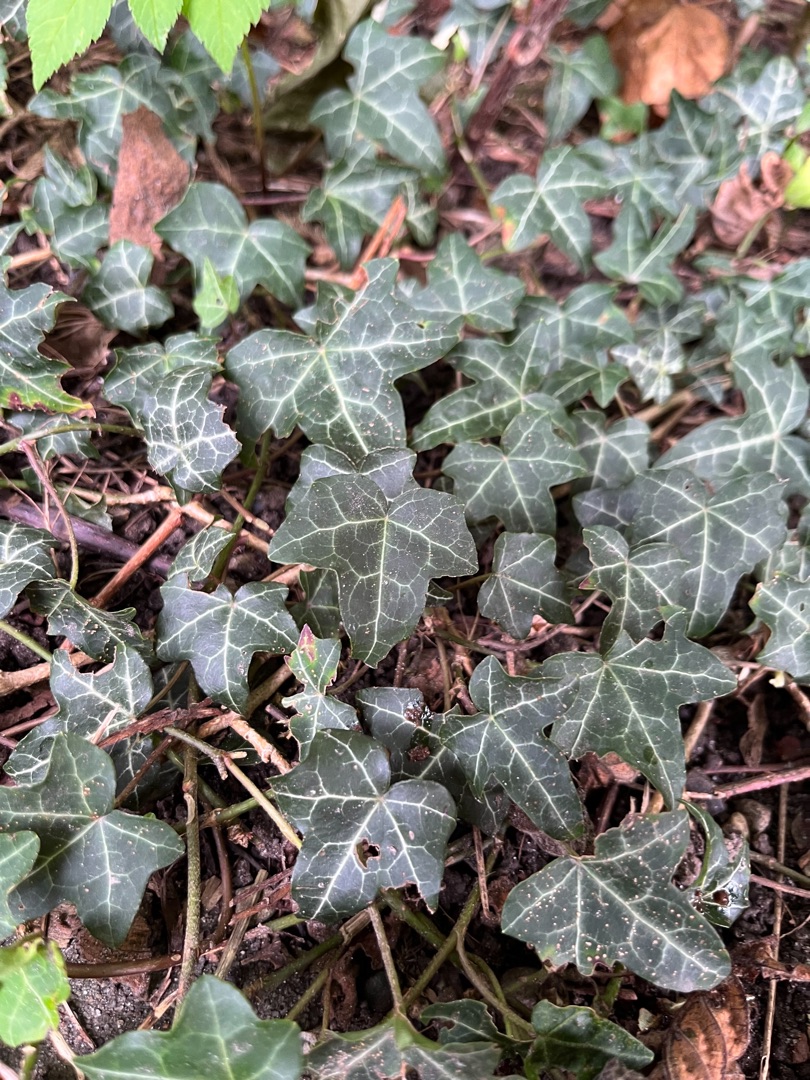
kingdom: Plantae
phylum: Tracheophyta
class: Magnoliopsida
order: Apiales
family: Araliaceae
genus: Hedera
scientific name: Hedera helix
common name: Vedbend
